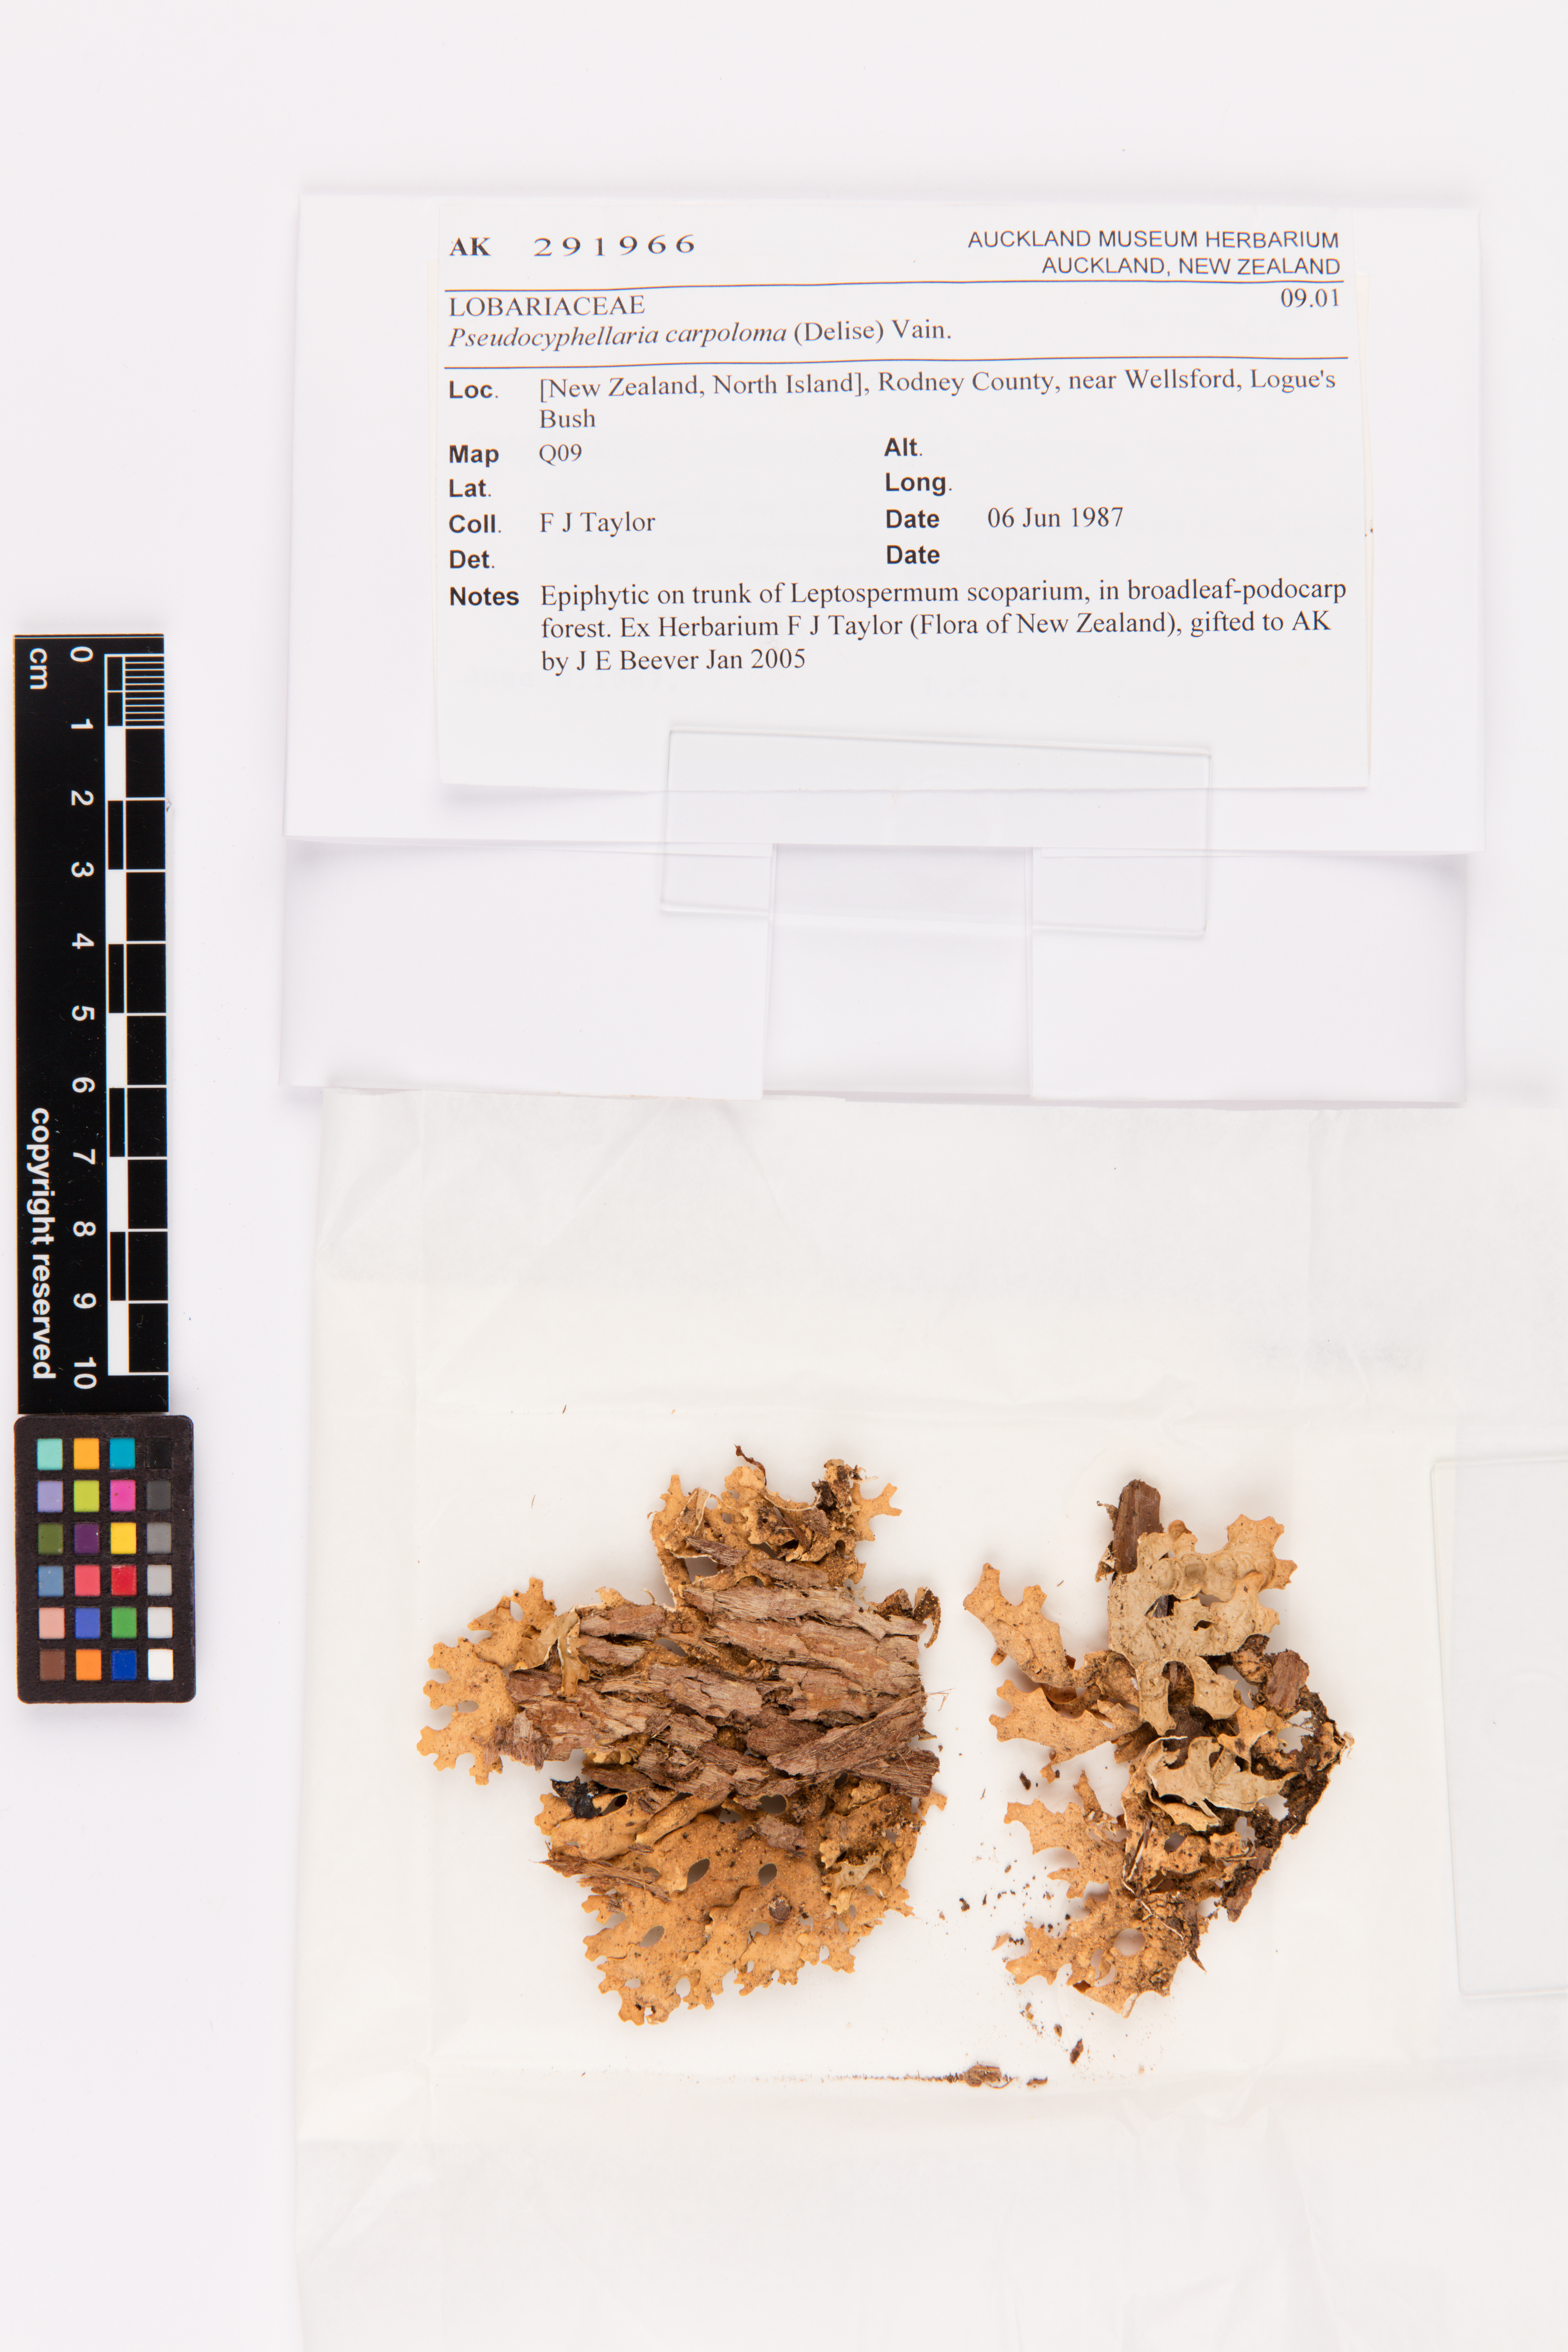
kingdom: Fungi
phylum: Ascomycota
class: Lecanoromycetes
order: Peltigerales
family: Lobariaceae
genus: Pseudocyphellaria
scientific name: Pseudocyphellaria carpoloma
